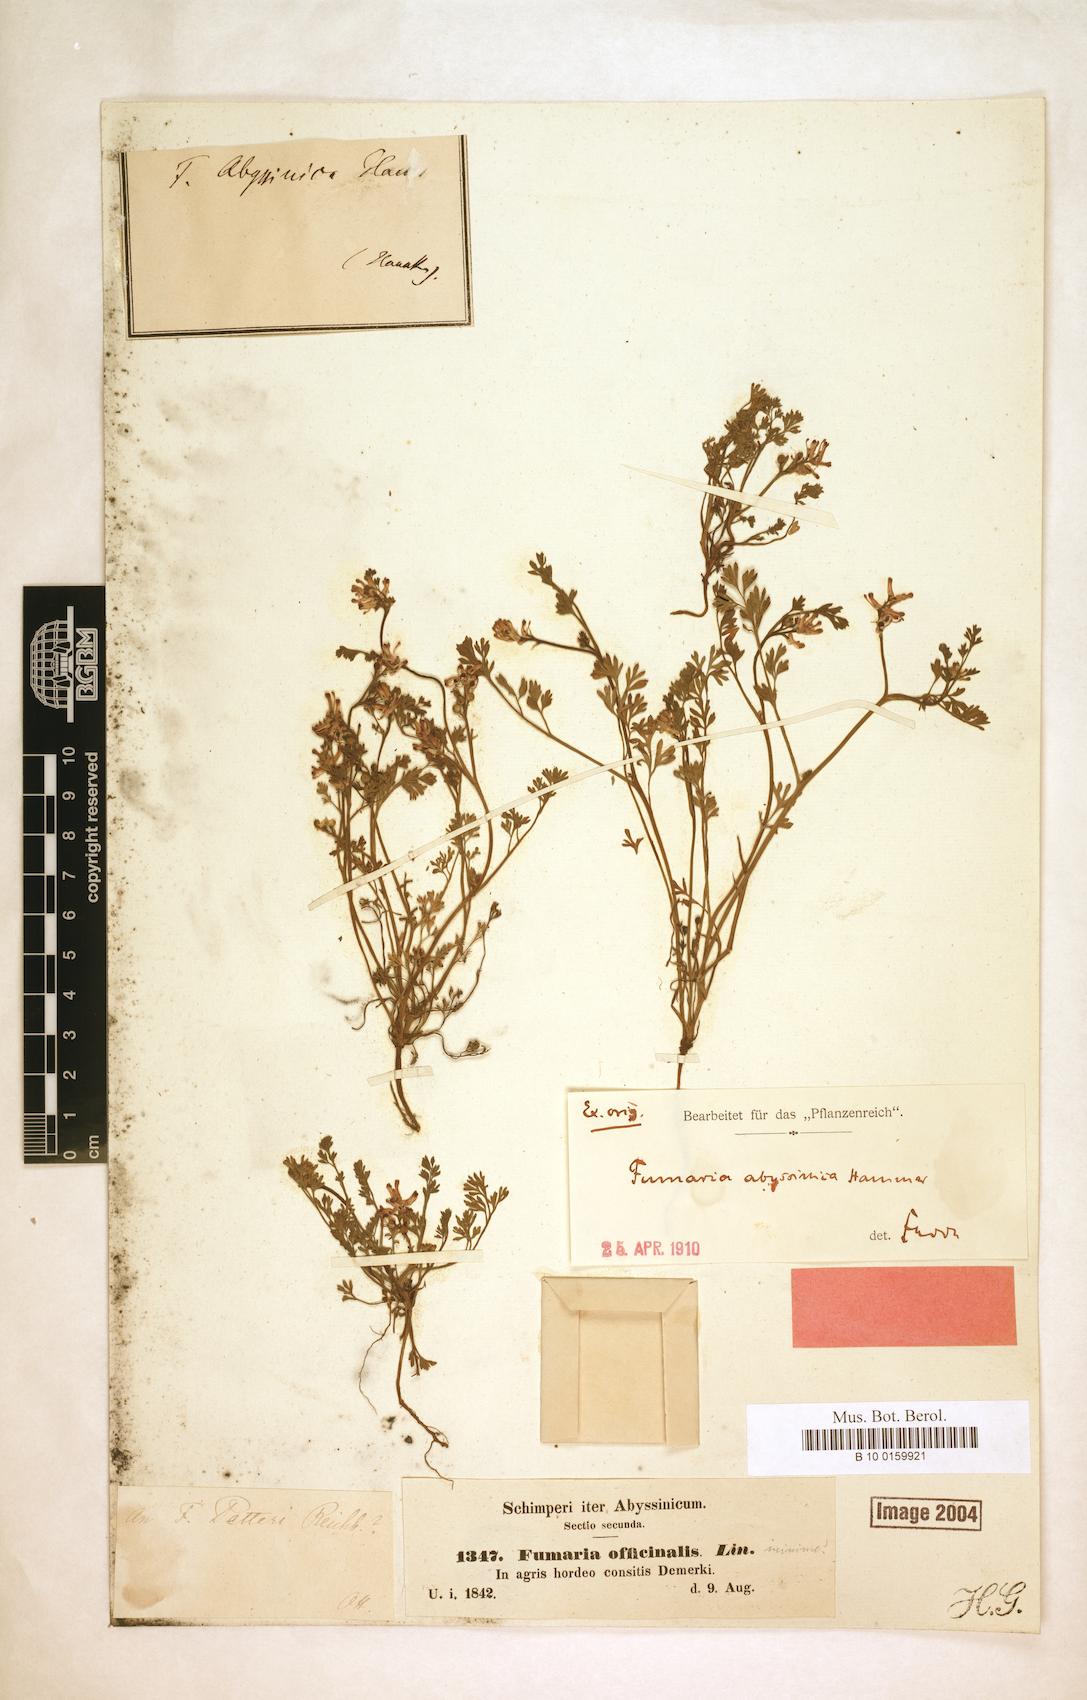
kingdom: Plantae
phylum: Tracheophyta
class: Magnoliopsida
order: Ranunculales
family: Papaveraceae
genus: Fumaria
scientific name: Fumaria abyssinica
